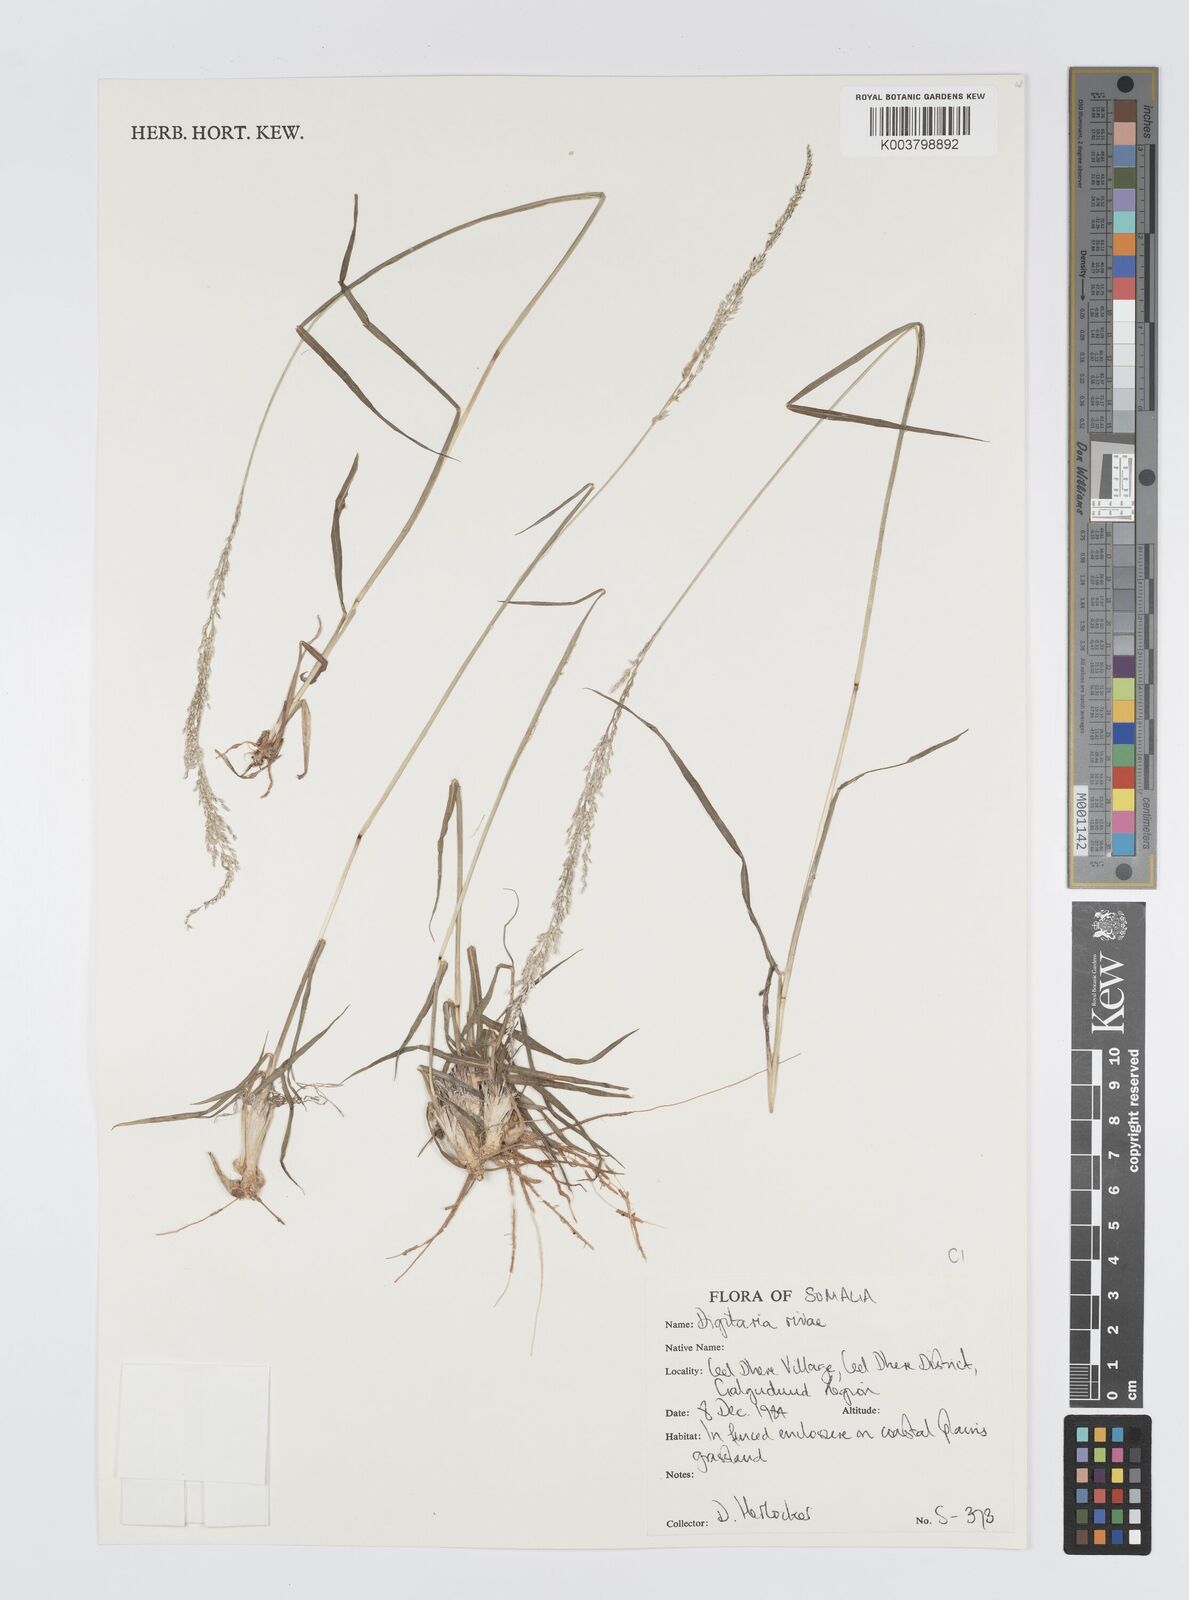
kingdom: Plantae
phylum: Tracheophyta
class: Liliopsida
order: Poales
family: Poaceae
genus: Digitaria
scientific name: Digitaria rivae
